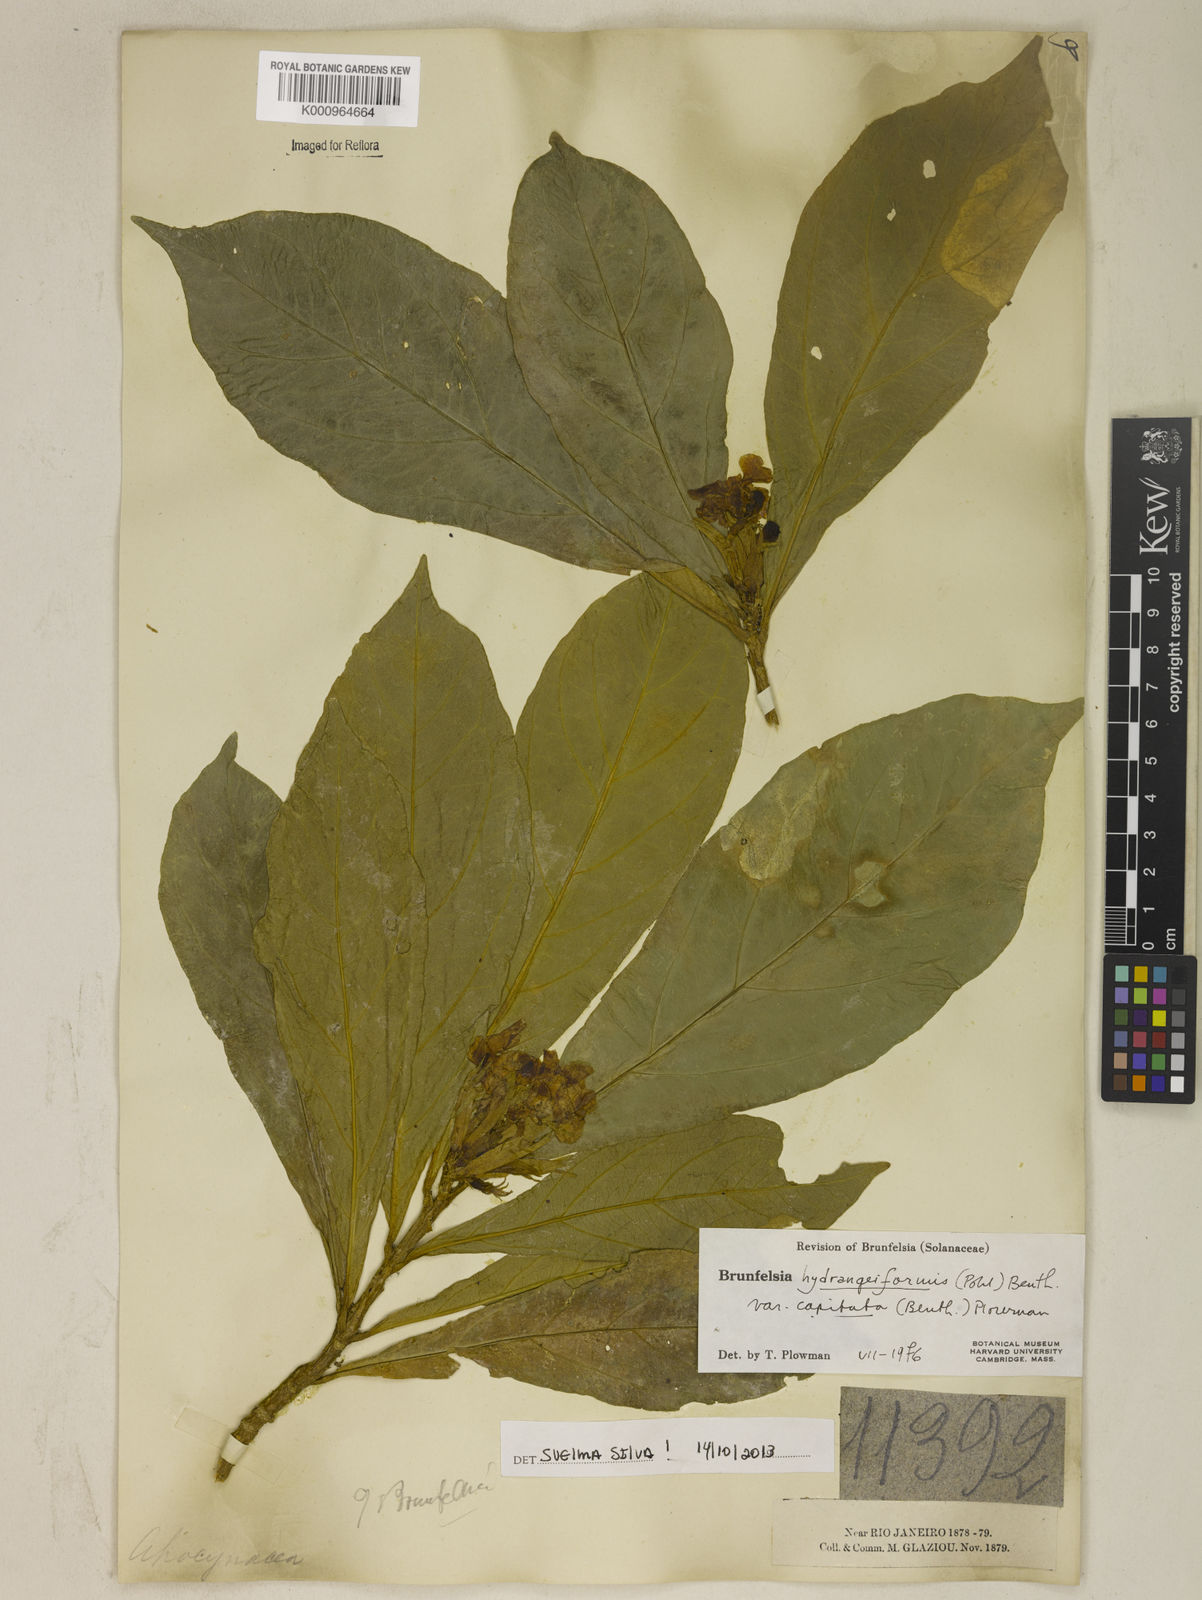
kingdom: Plantae
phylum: Tracheophyta
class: Magnoliopsida
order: Solanales
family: Solanaceae
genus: Brunfelsia
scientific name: Brunfelsia hydrangeiformis
